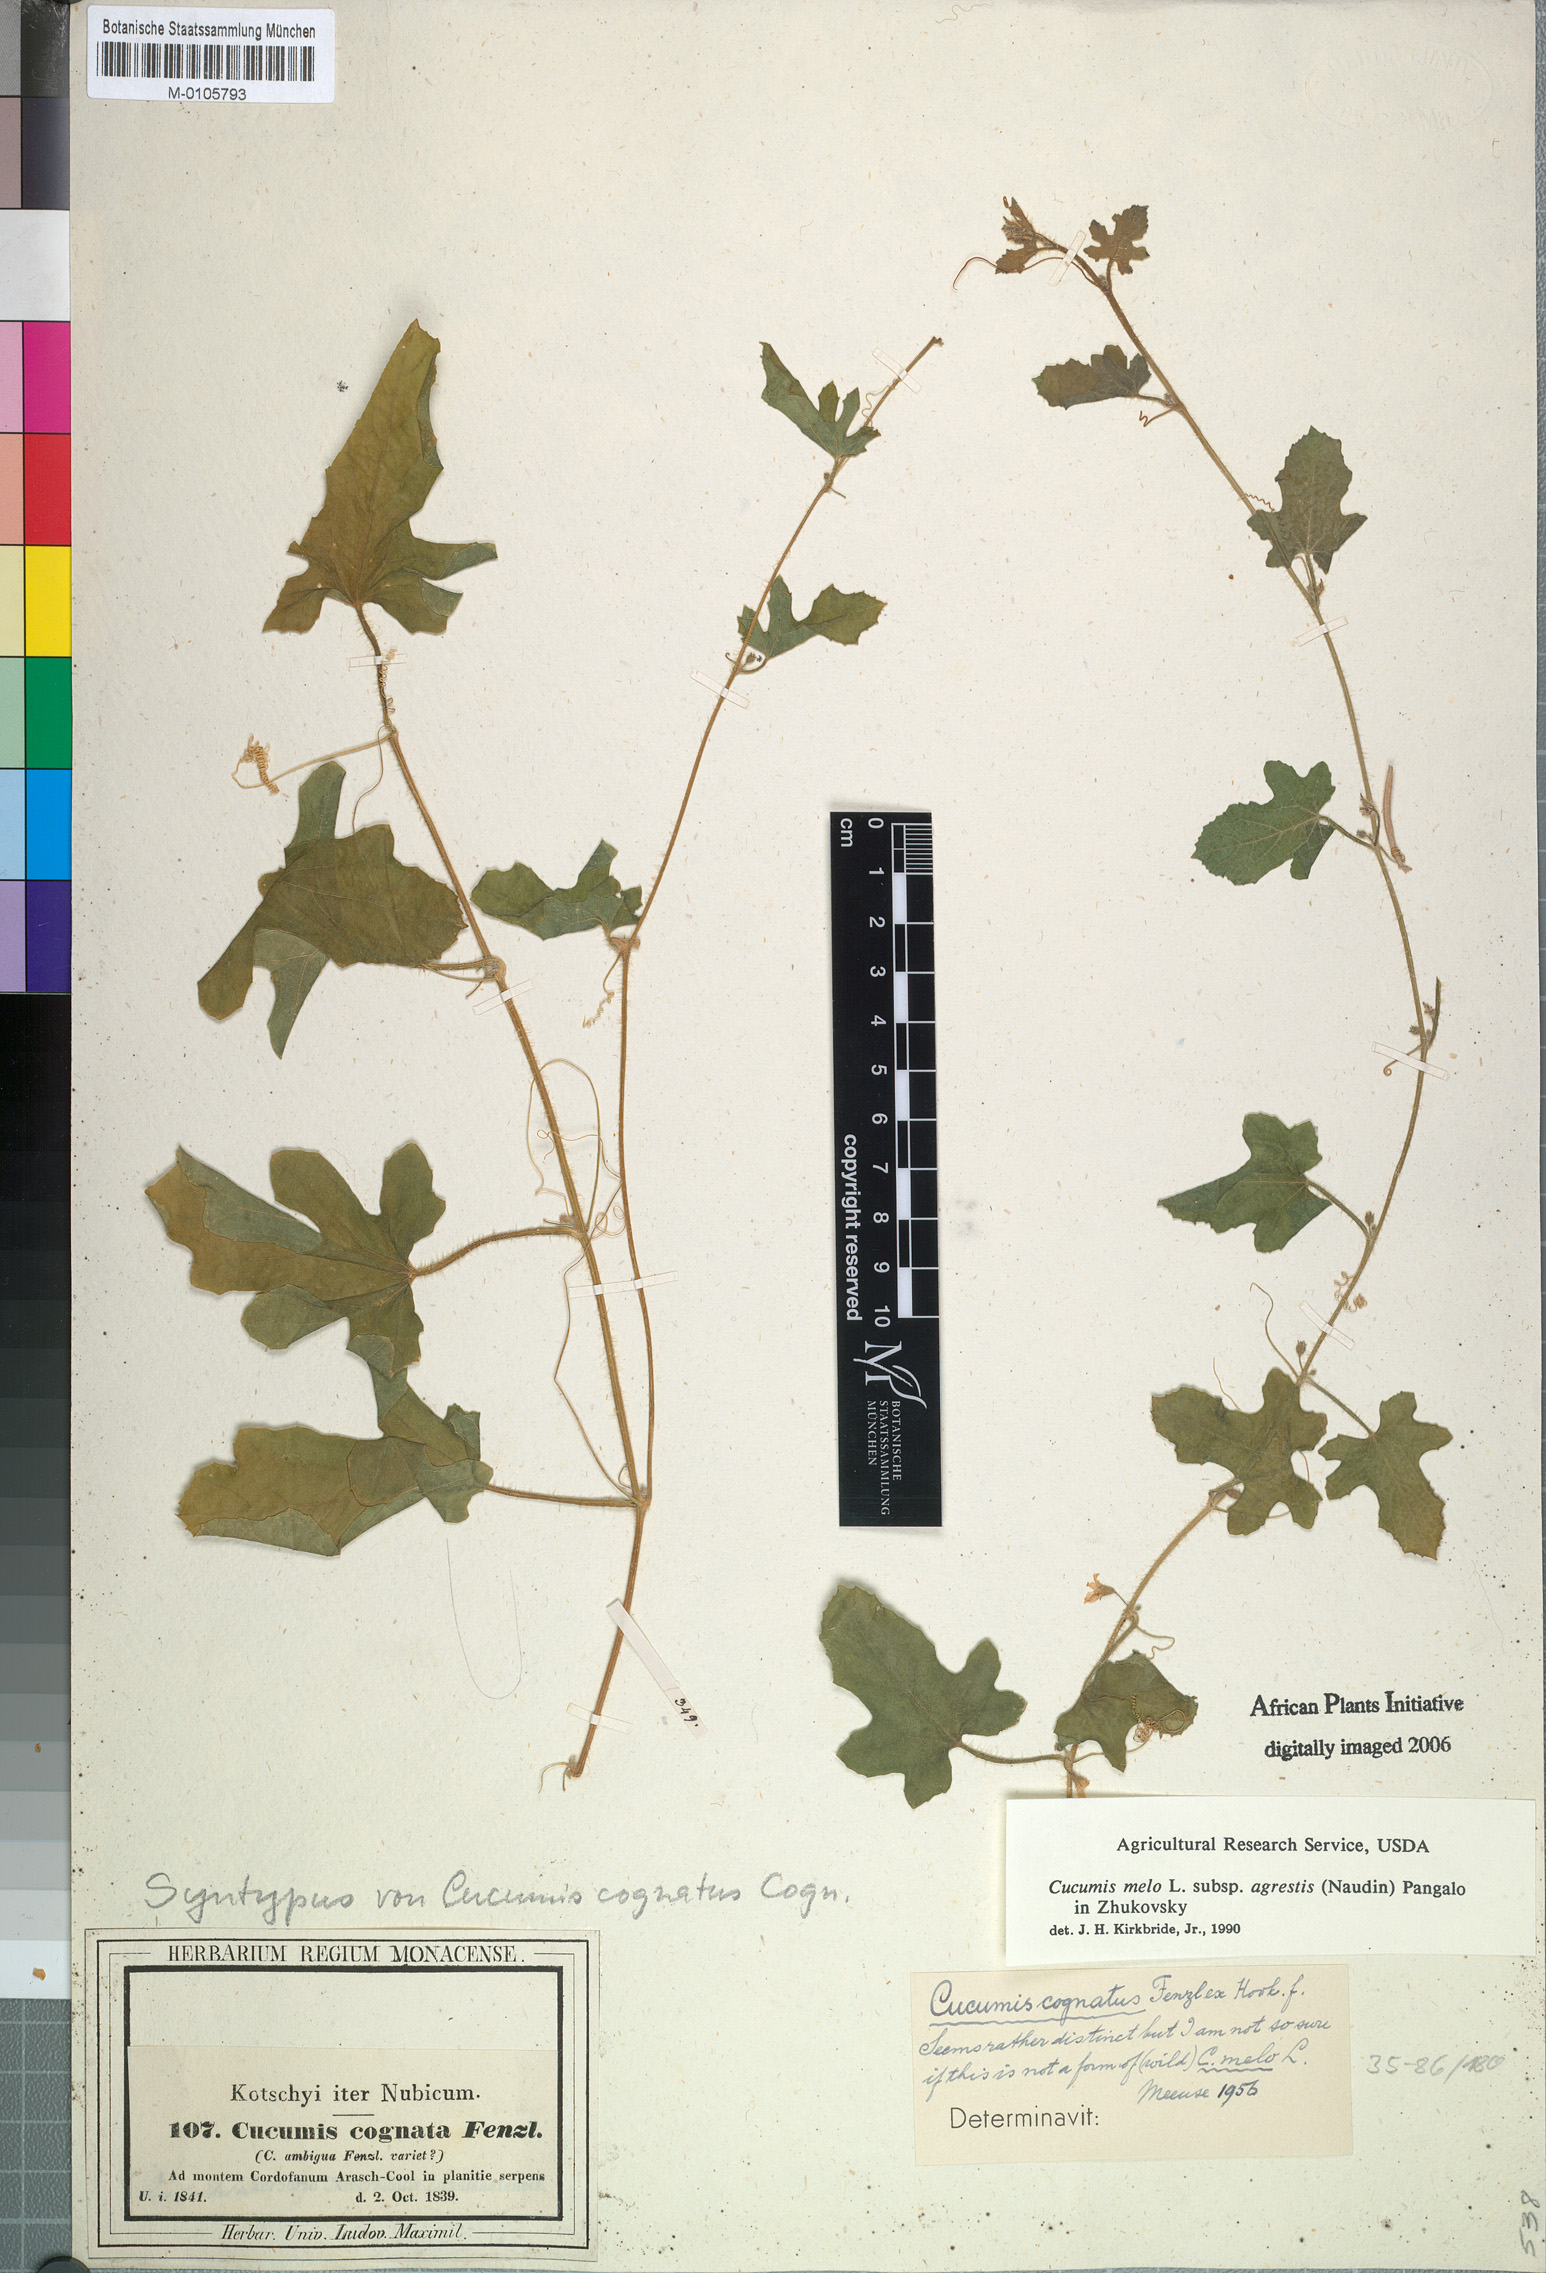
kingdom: Plantae
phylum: Tracheophyta
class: Magnoliopsida
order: Cucurbitales
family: Cucurbitaceae
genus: Cucumis
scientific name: Cucumis melo
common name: Melon
